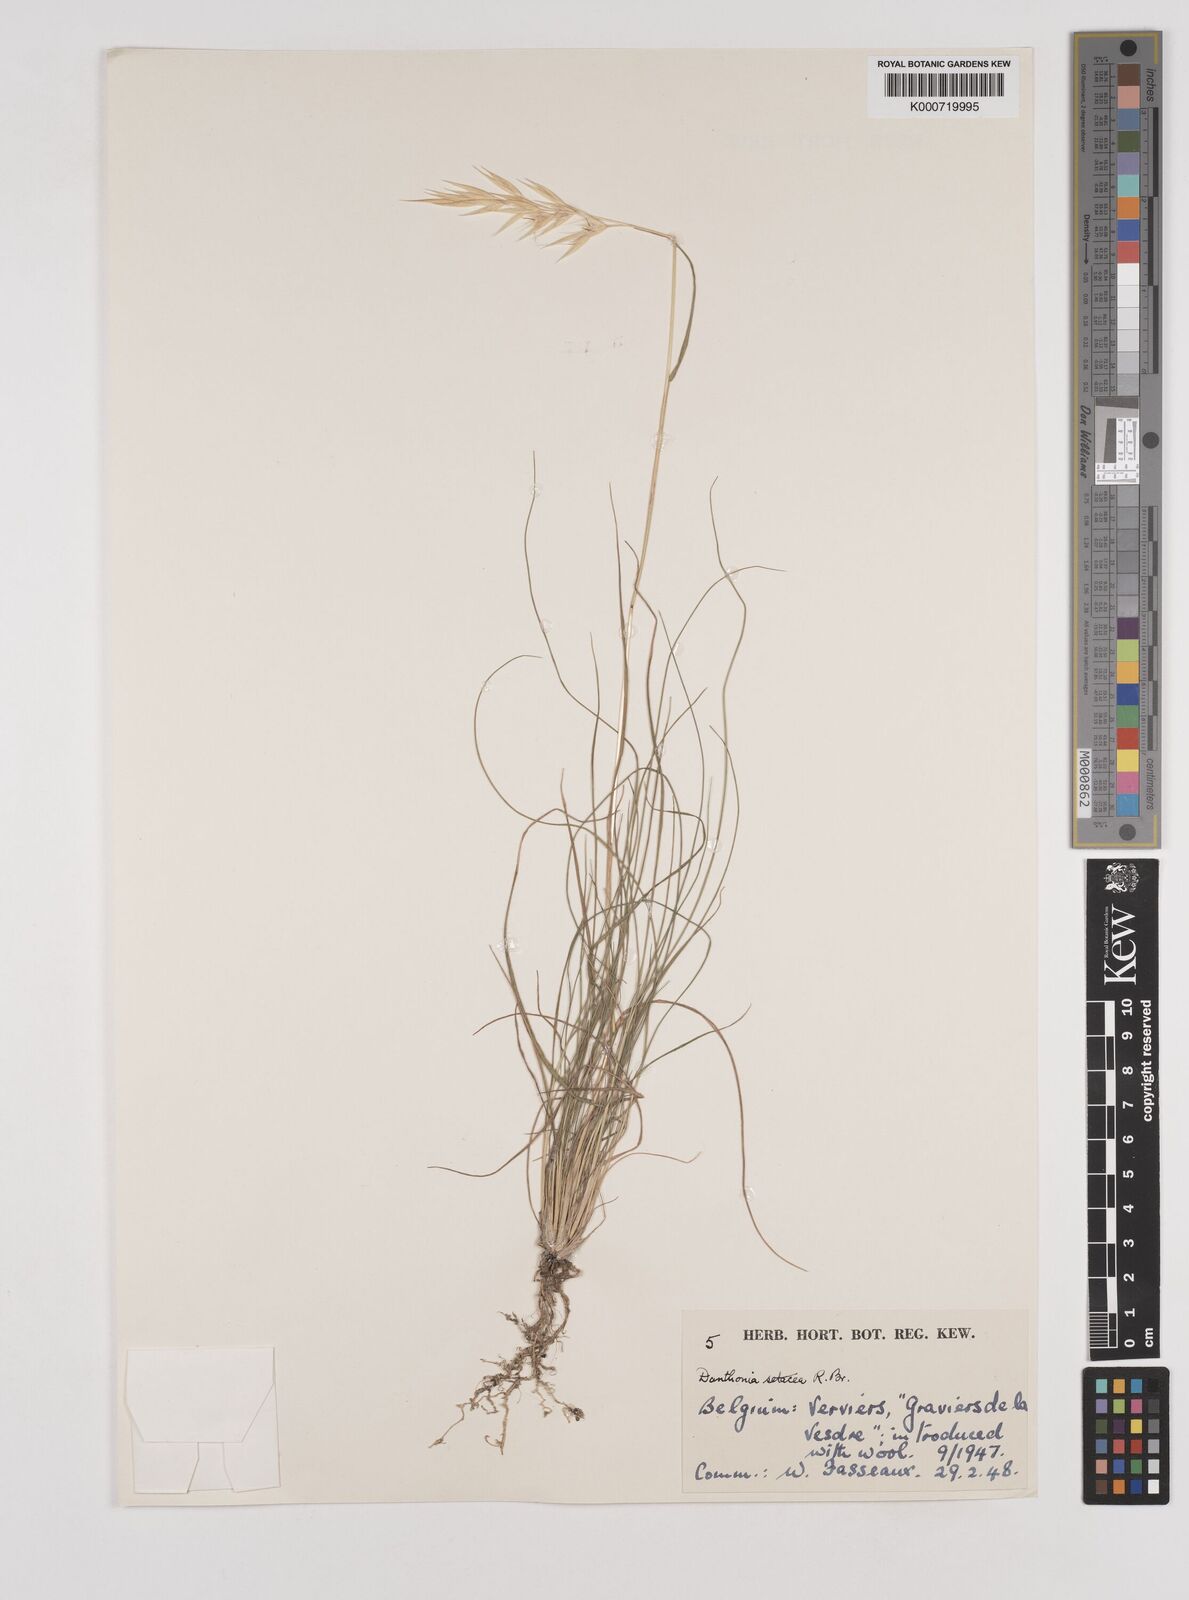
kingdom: Plantae
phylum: Tracheophyta
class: Liliopsida
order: Poales
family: Poaceae
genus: Rytidosperma
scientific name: Rytidosperma setaceum
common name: Small-flower wallaby grass
